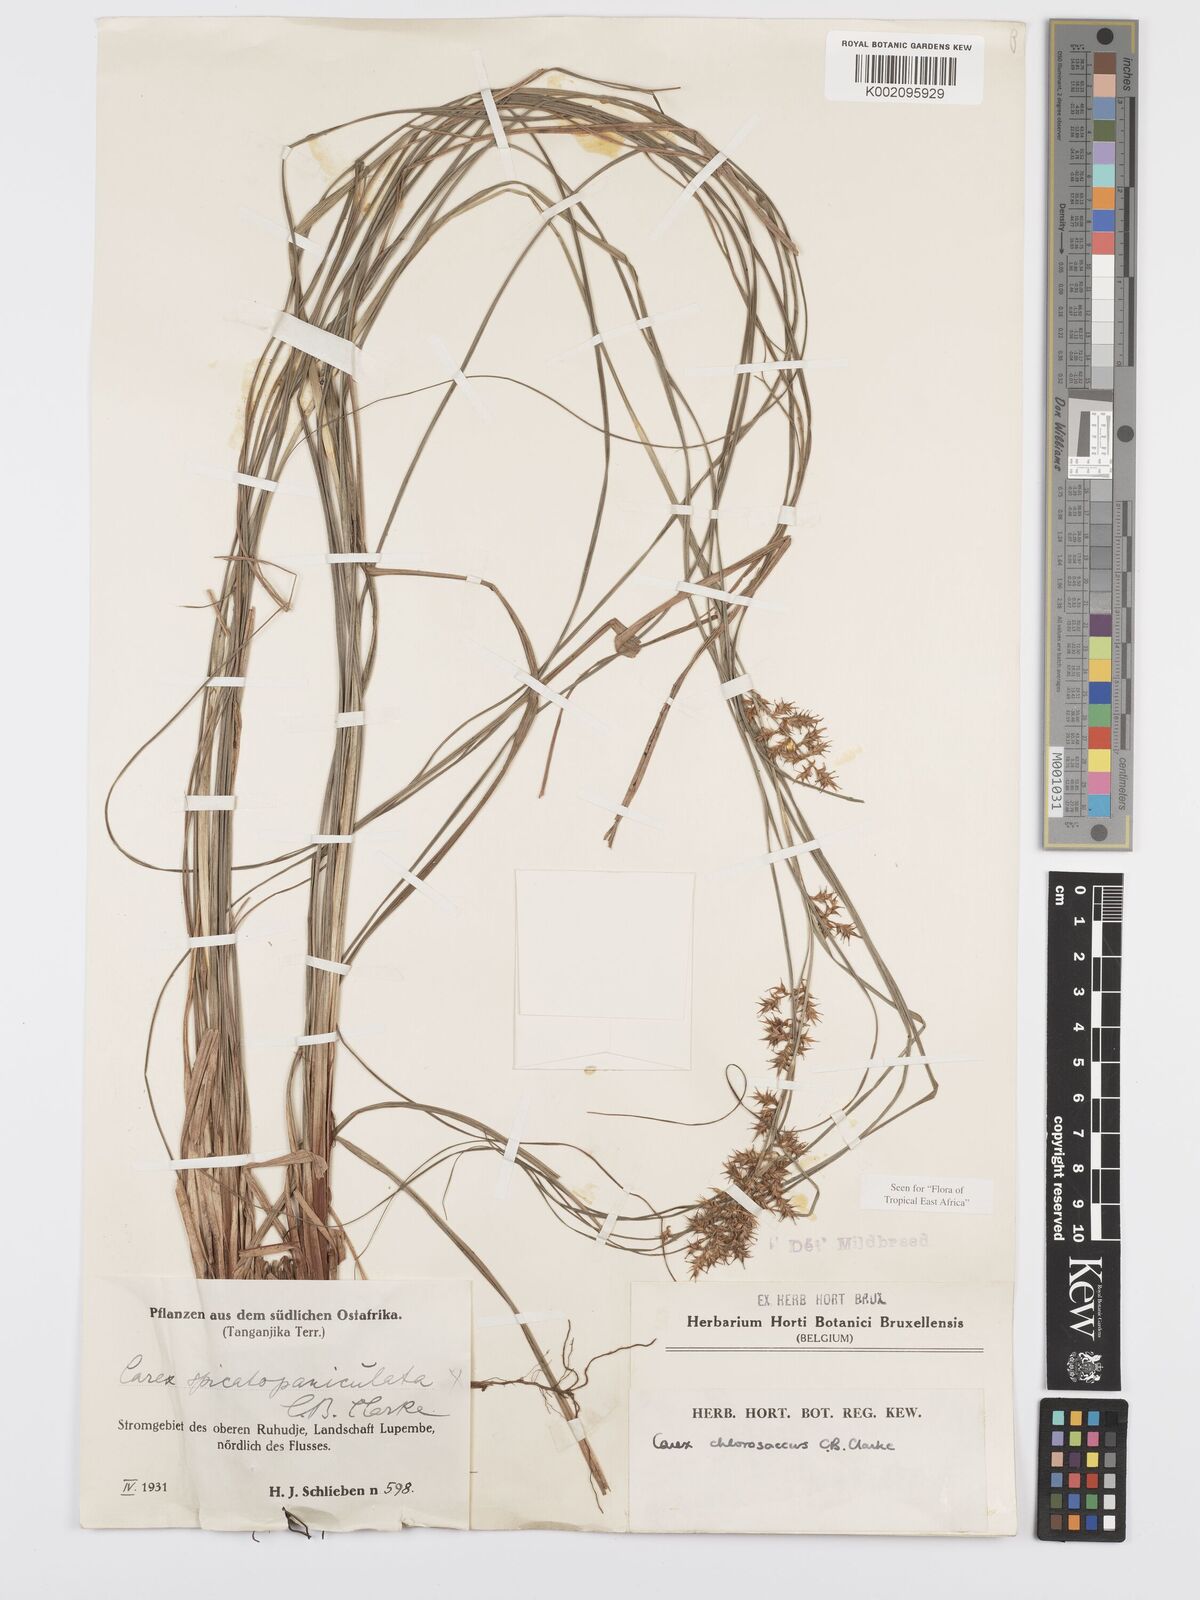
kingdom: Plantae
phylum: Tracheophyta
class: Liliopsida
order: Poales
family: Cyperaceae
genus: Carex
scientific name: Carex chlorosaccus
